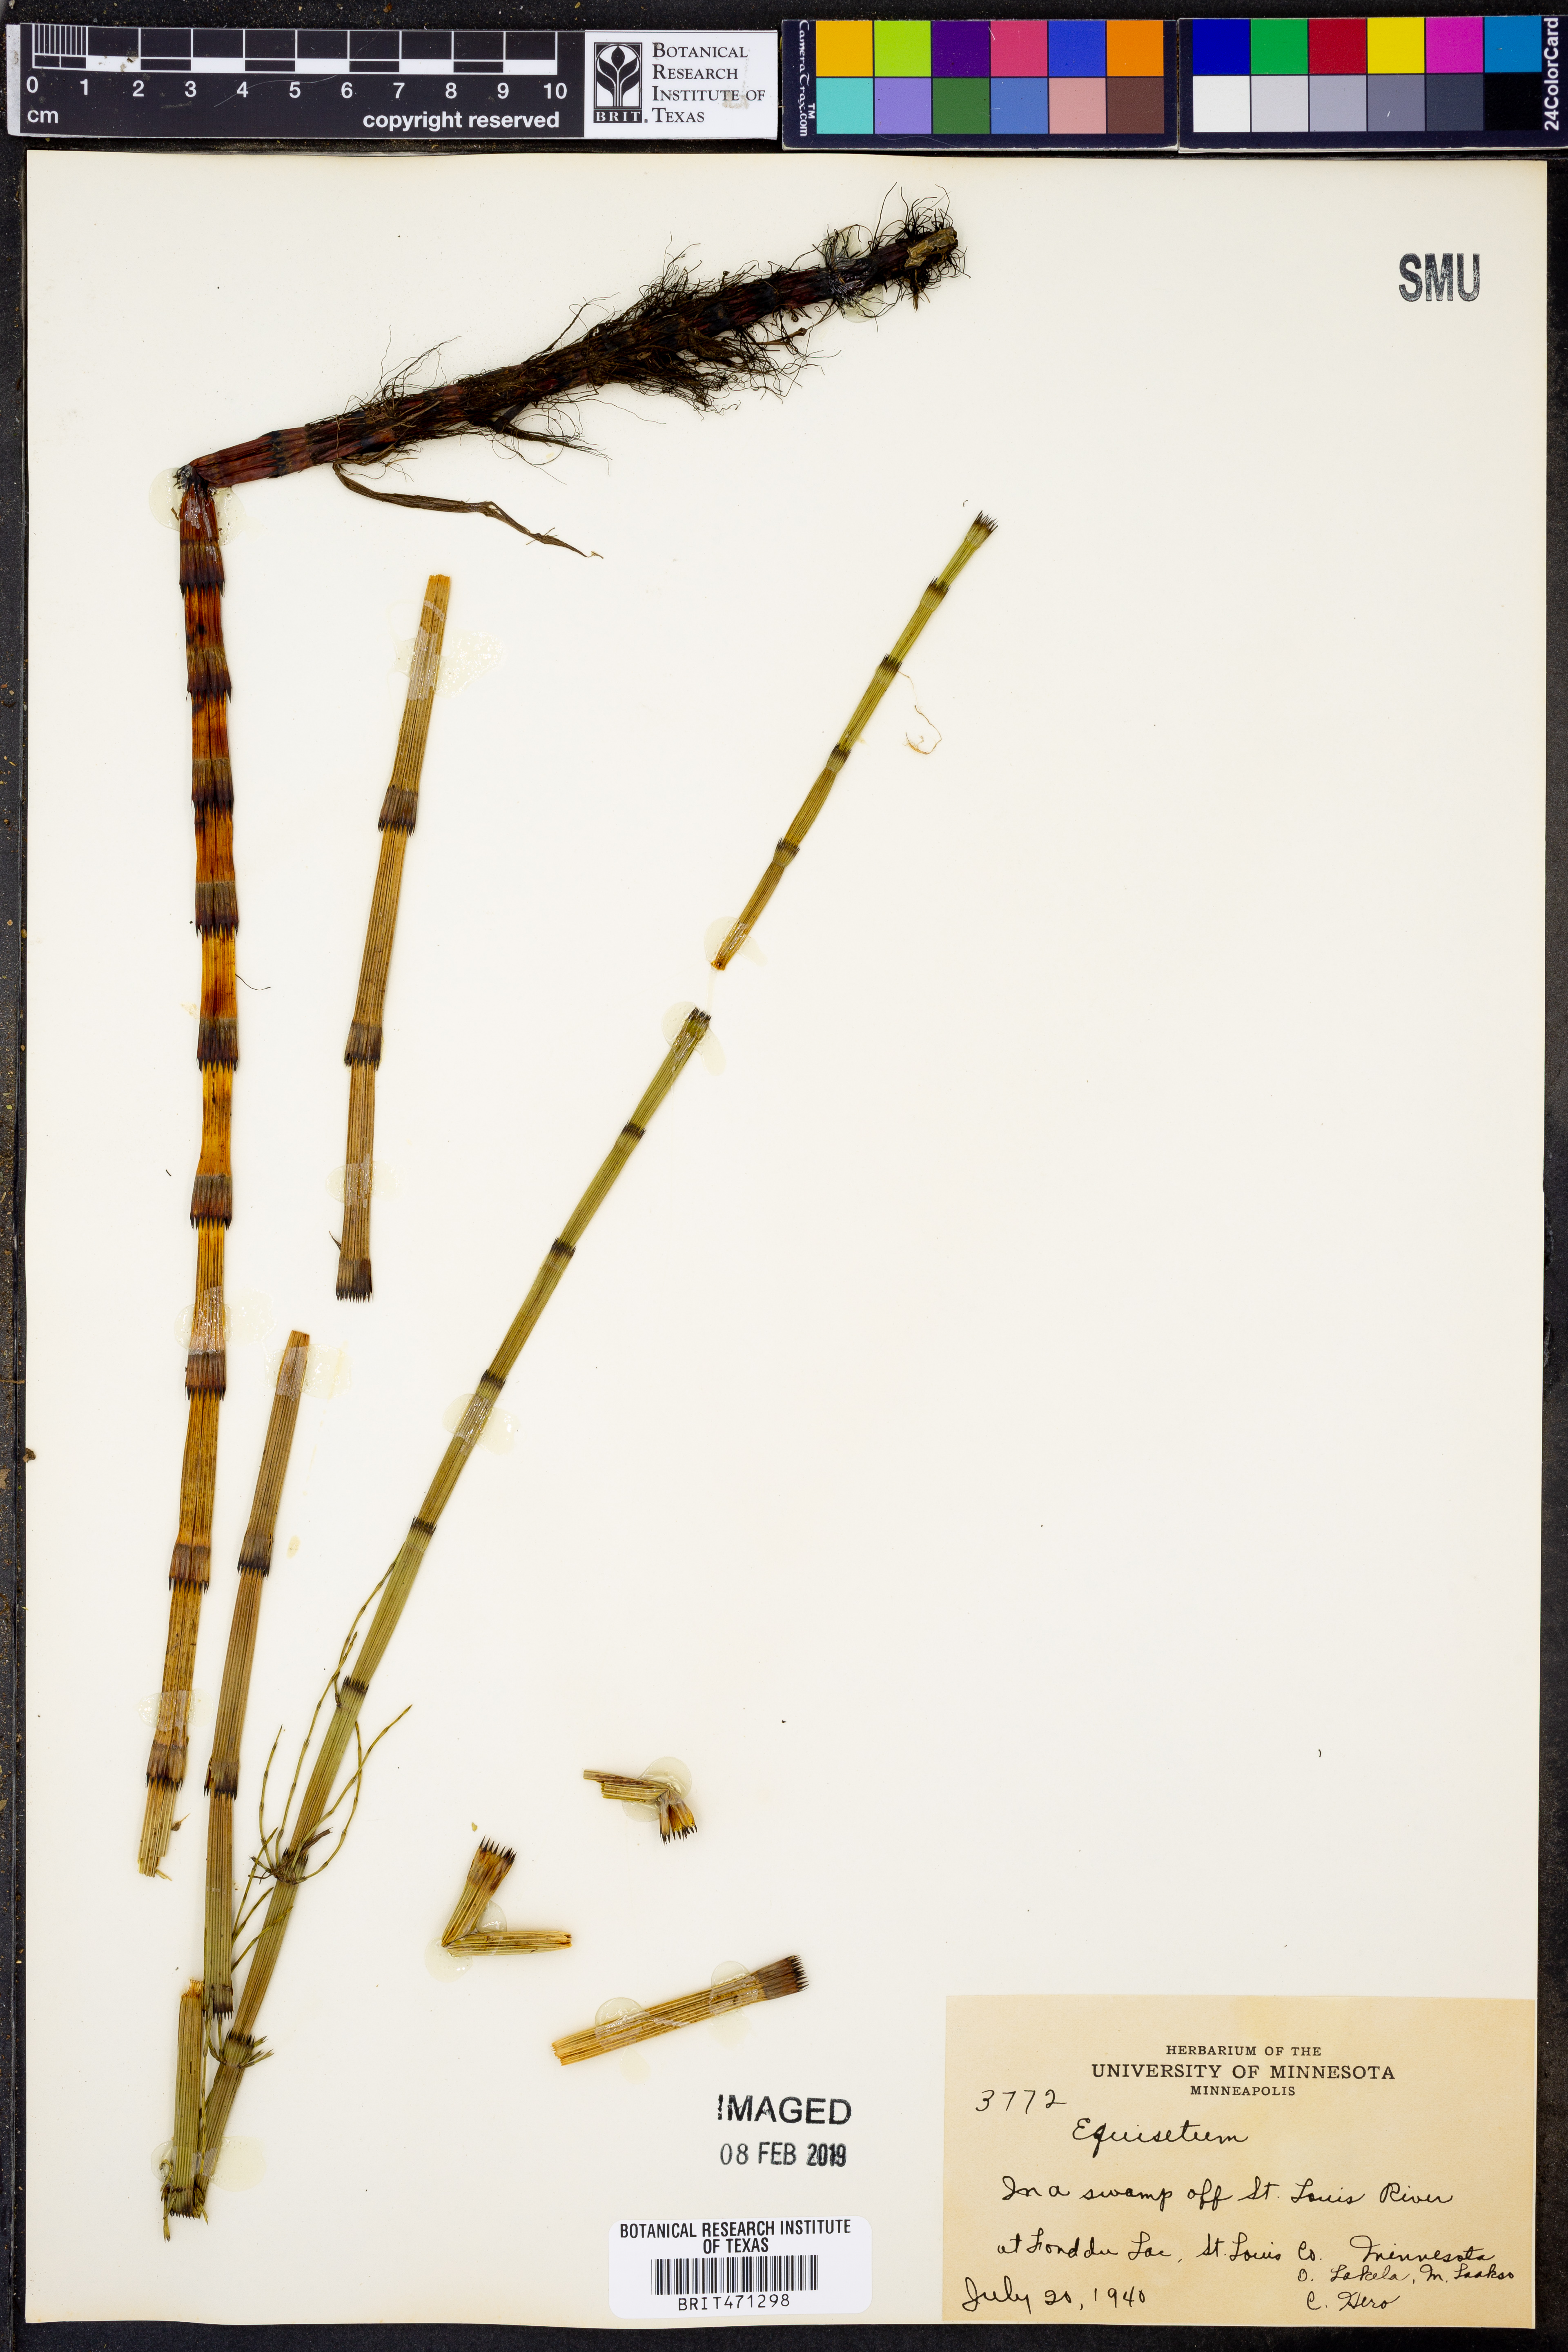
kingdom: Plantae
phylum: Tracheophyta
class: Polypodiopsida
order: Equisetales
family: Equisetaceae
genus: Equisetum
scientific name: Equisetum
